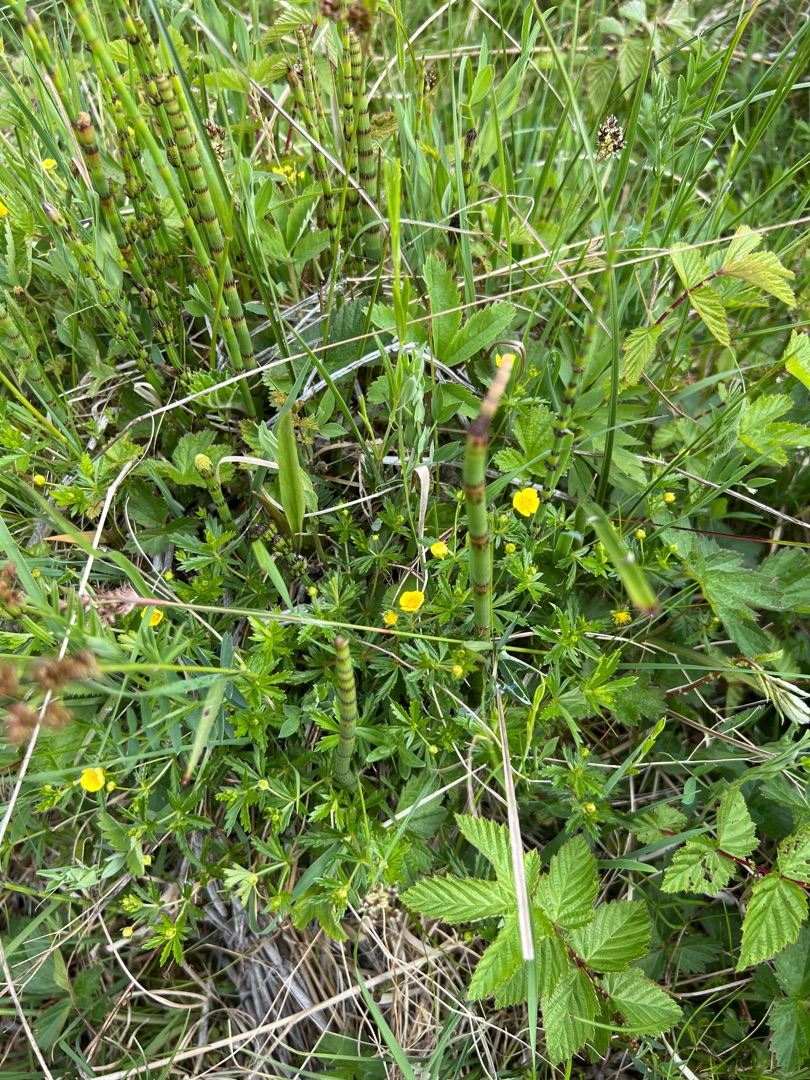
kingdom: Plantae
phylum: Tracheophyta
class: Magnoliopsida
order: Rosales
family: Rosaceae
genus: Potentilla
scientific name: Potentilla erecta
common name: Tormentil
